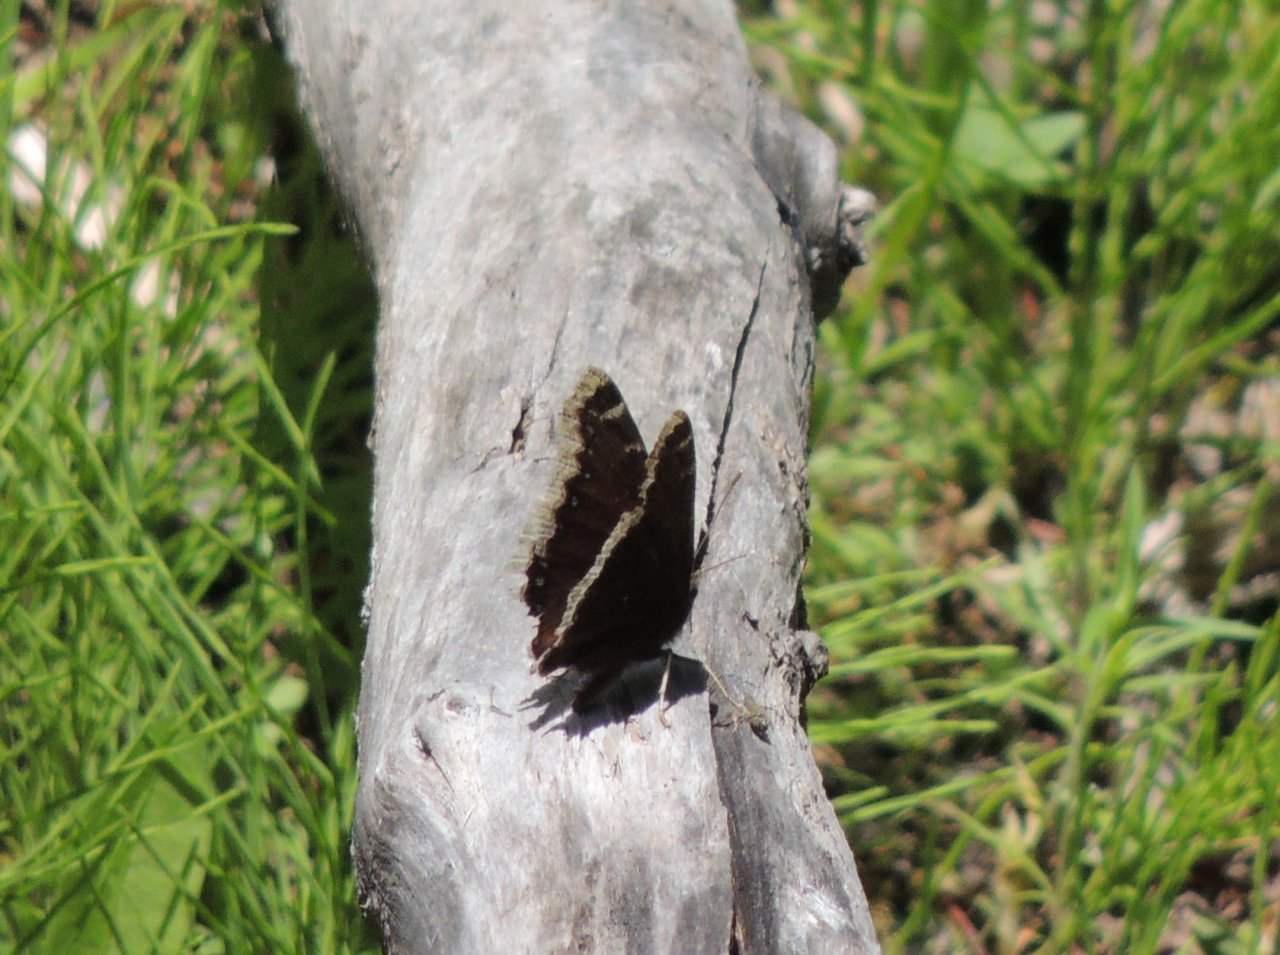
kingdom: Animalia
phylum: Arthropoda
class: Insecta
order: Lepidoptera
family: Nymphalidae
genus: Nymphalis
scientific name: Nymphalis antiopa
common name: Mourning Cloak
